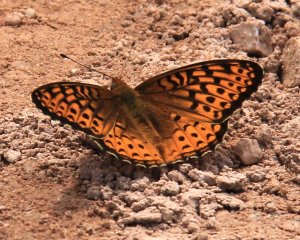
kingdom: Animalia
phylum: Arthropoda
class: Insecta
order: Lepidoptera
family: Nymphalidae
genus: Speyeria
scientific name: Speyeria atlantis
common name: Atlantis Fritillary
